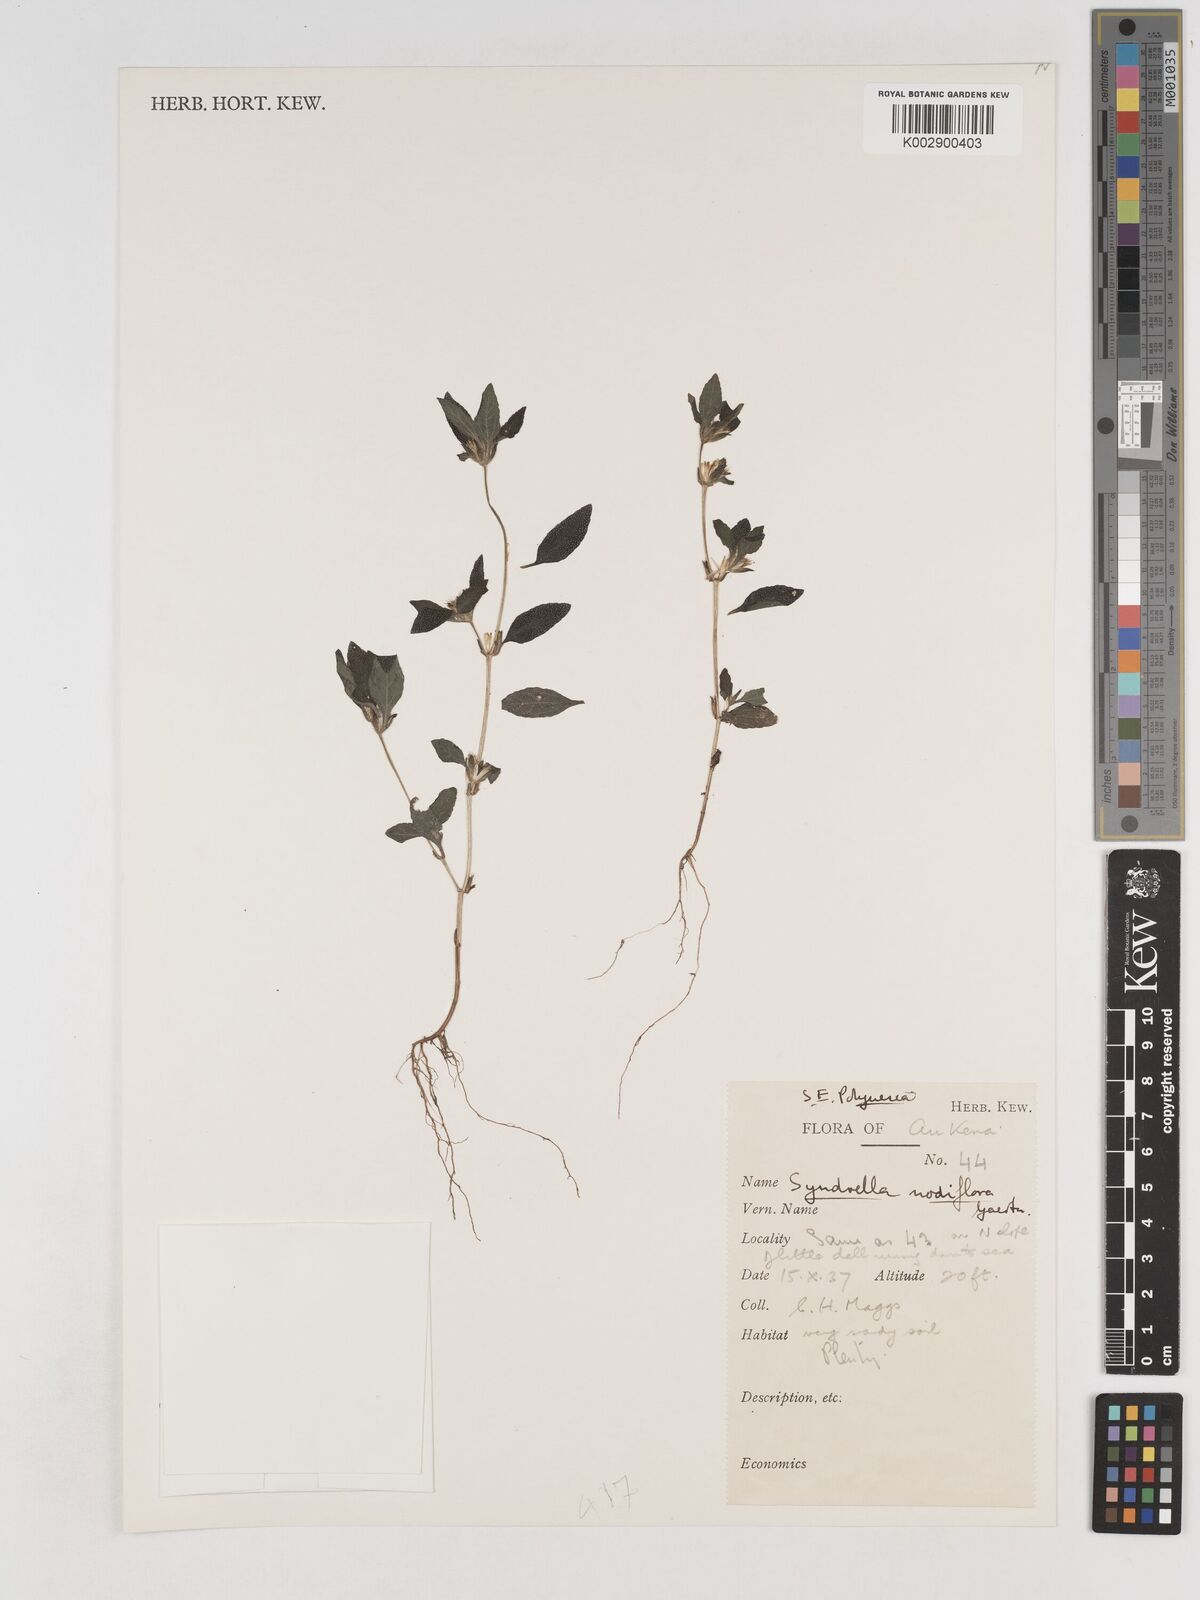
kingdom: Plantae
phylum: Tracheophyta
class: Magnoliopsida
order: Asterales
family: Asteraceae
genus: Synedrella
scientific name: Synedrella nodiflora
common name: Nodeweed
